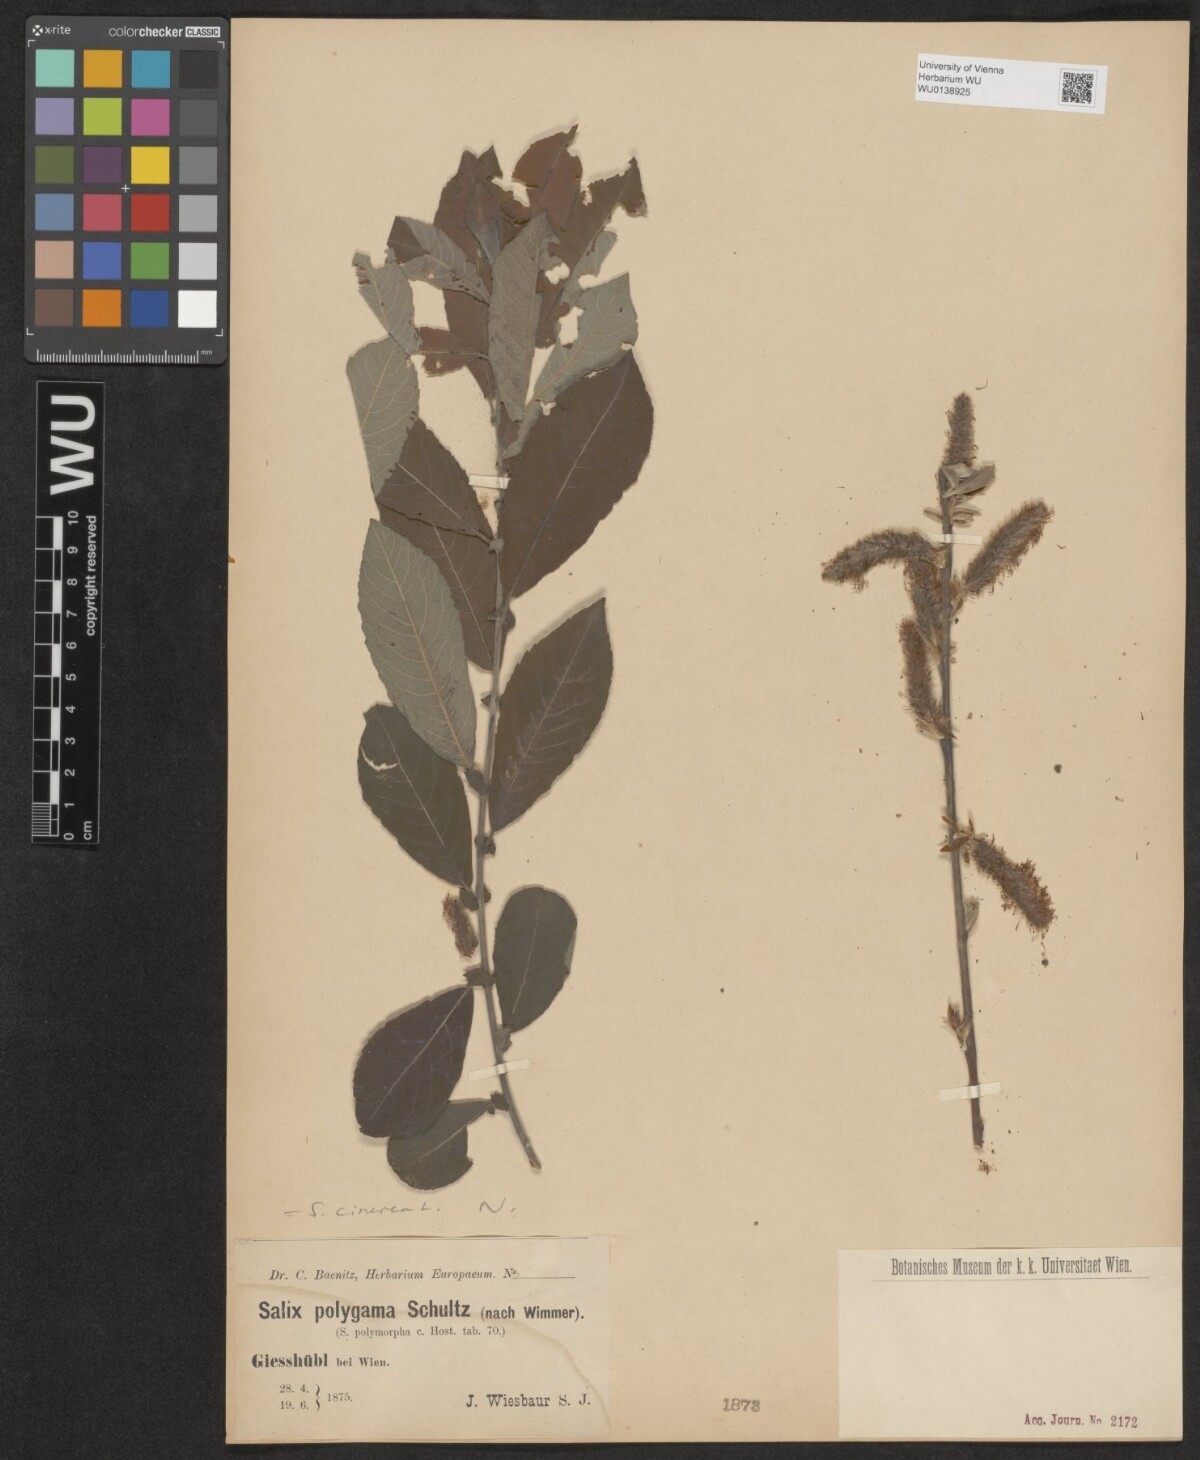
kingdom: Plantae
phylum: Tracheophyta
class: Magnoliopsida
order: Malpighiales
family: Salicaceae
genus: Salix
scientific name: Salix cinerea
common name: Common sallow
